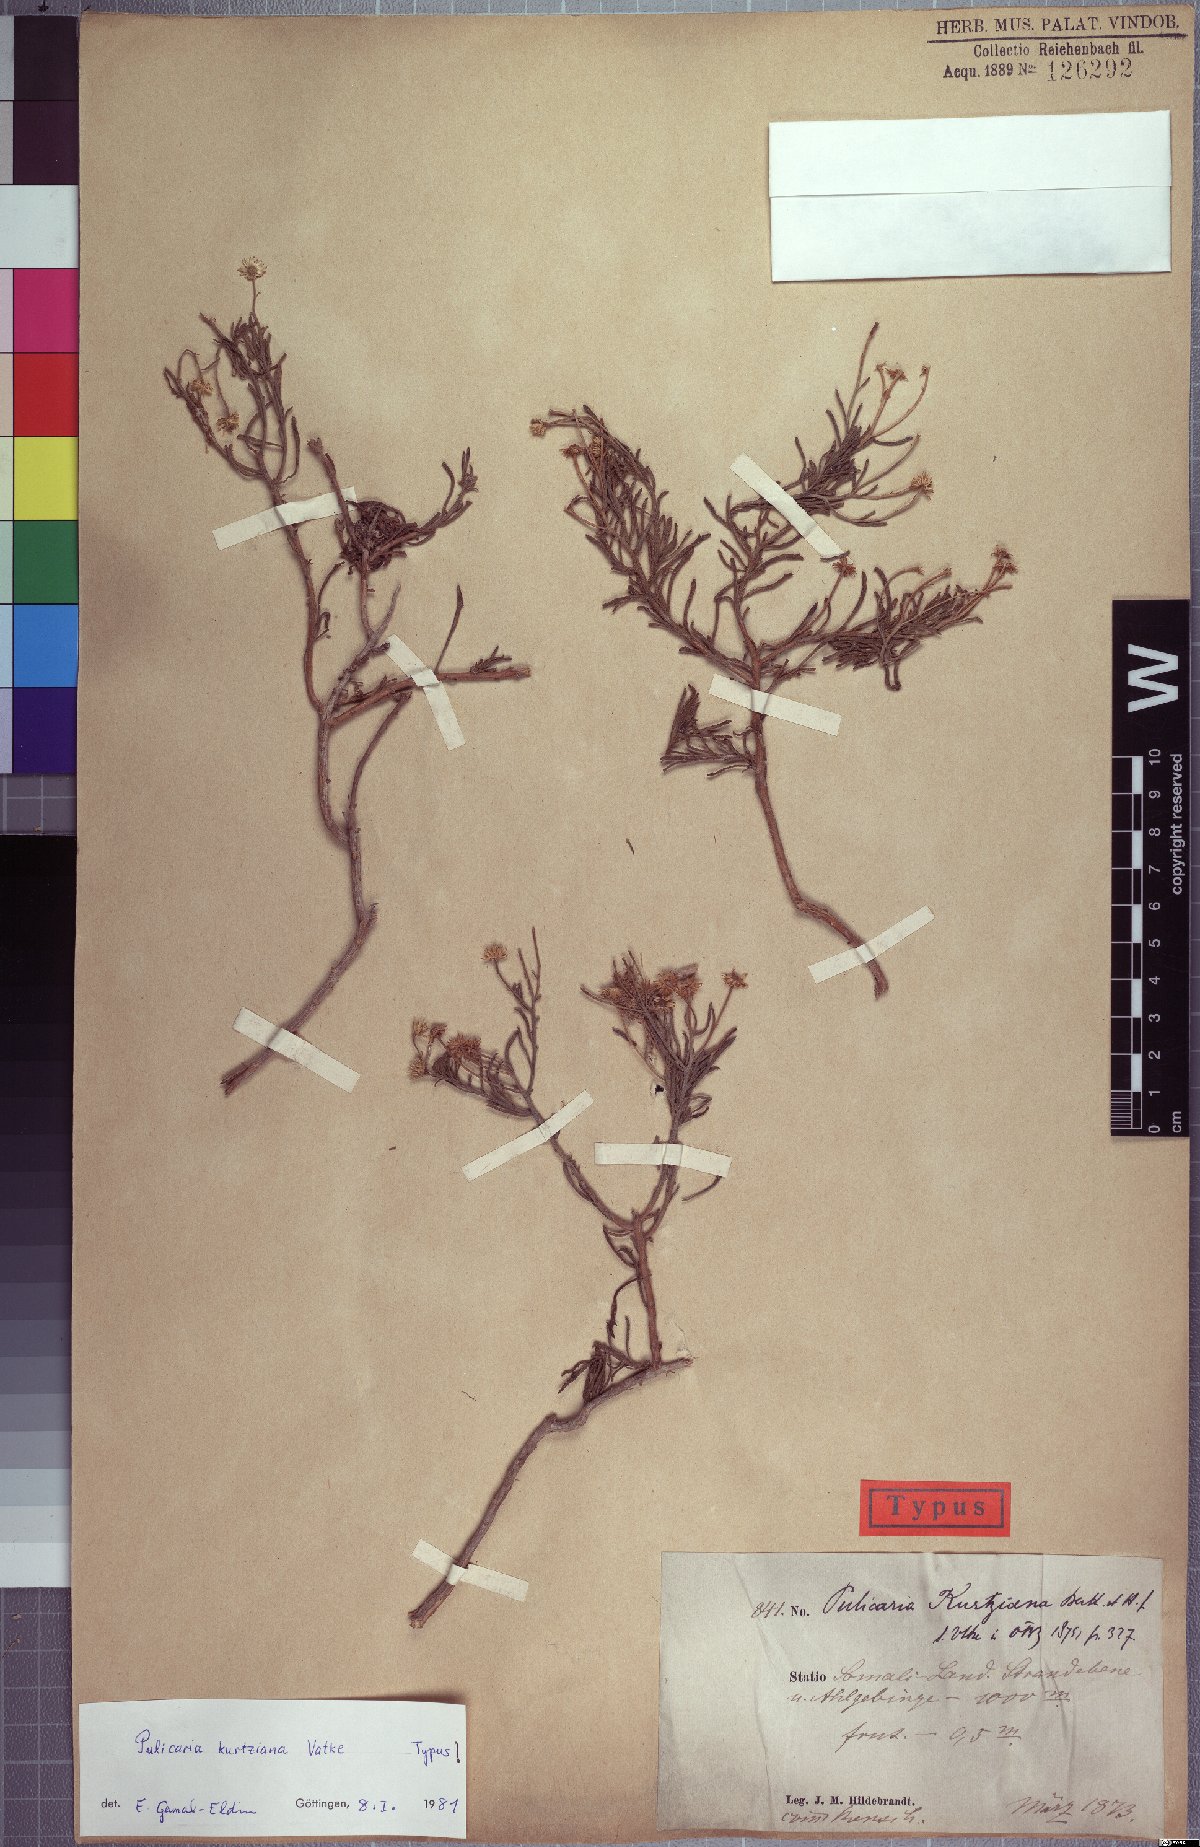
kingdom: Plantae
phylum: Tracheophyta
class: Magnoliopsida
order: Asterales
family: Asteraceae
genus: Pulicaria
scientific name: Pulicaria kurtziana
